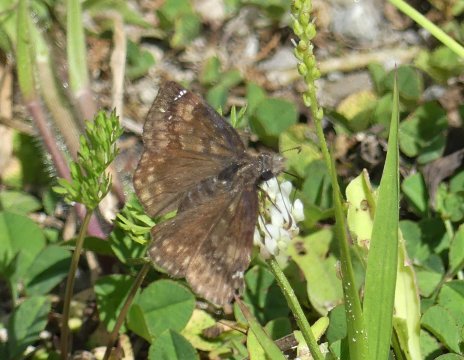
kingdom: Animalia
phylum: Arthropoda
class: Insecta
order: Lepidoptera
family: Hesperiidae
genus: Gesta
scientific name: Gesta
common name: Wild Indigo Duskywing
